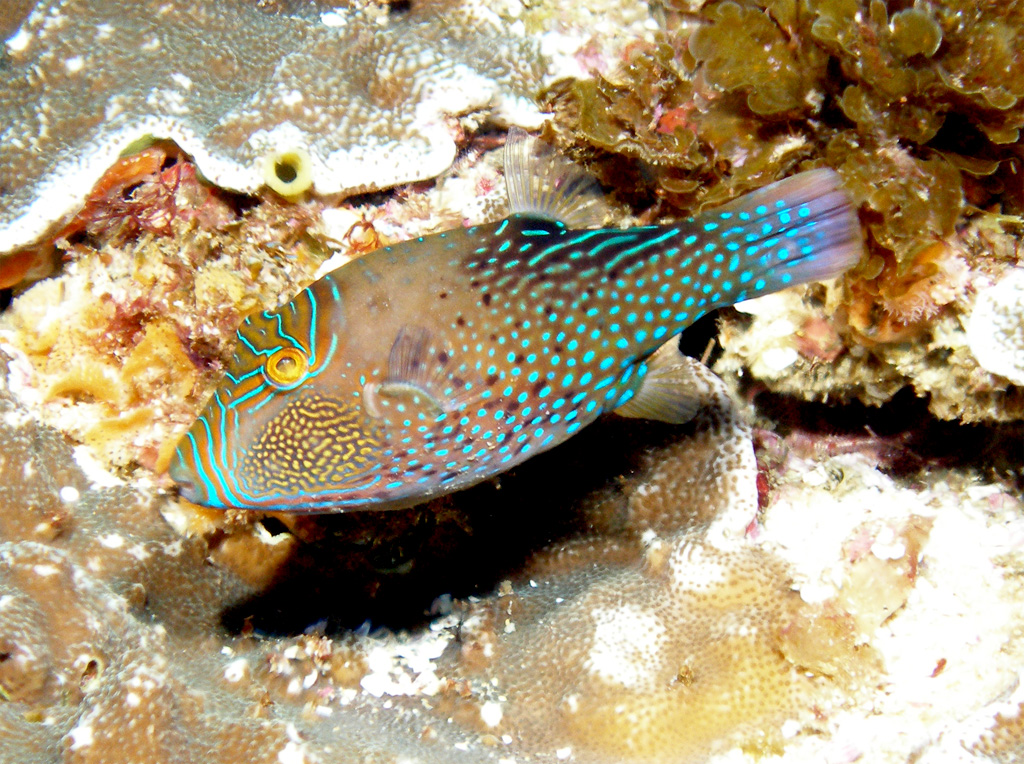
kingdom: Animalia
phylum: Chordata
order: Tetraodontiformes
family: Tetraodontidae
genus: Canthigaster
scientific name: Canthigaster amboinensis
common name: Ambon pufferfish
